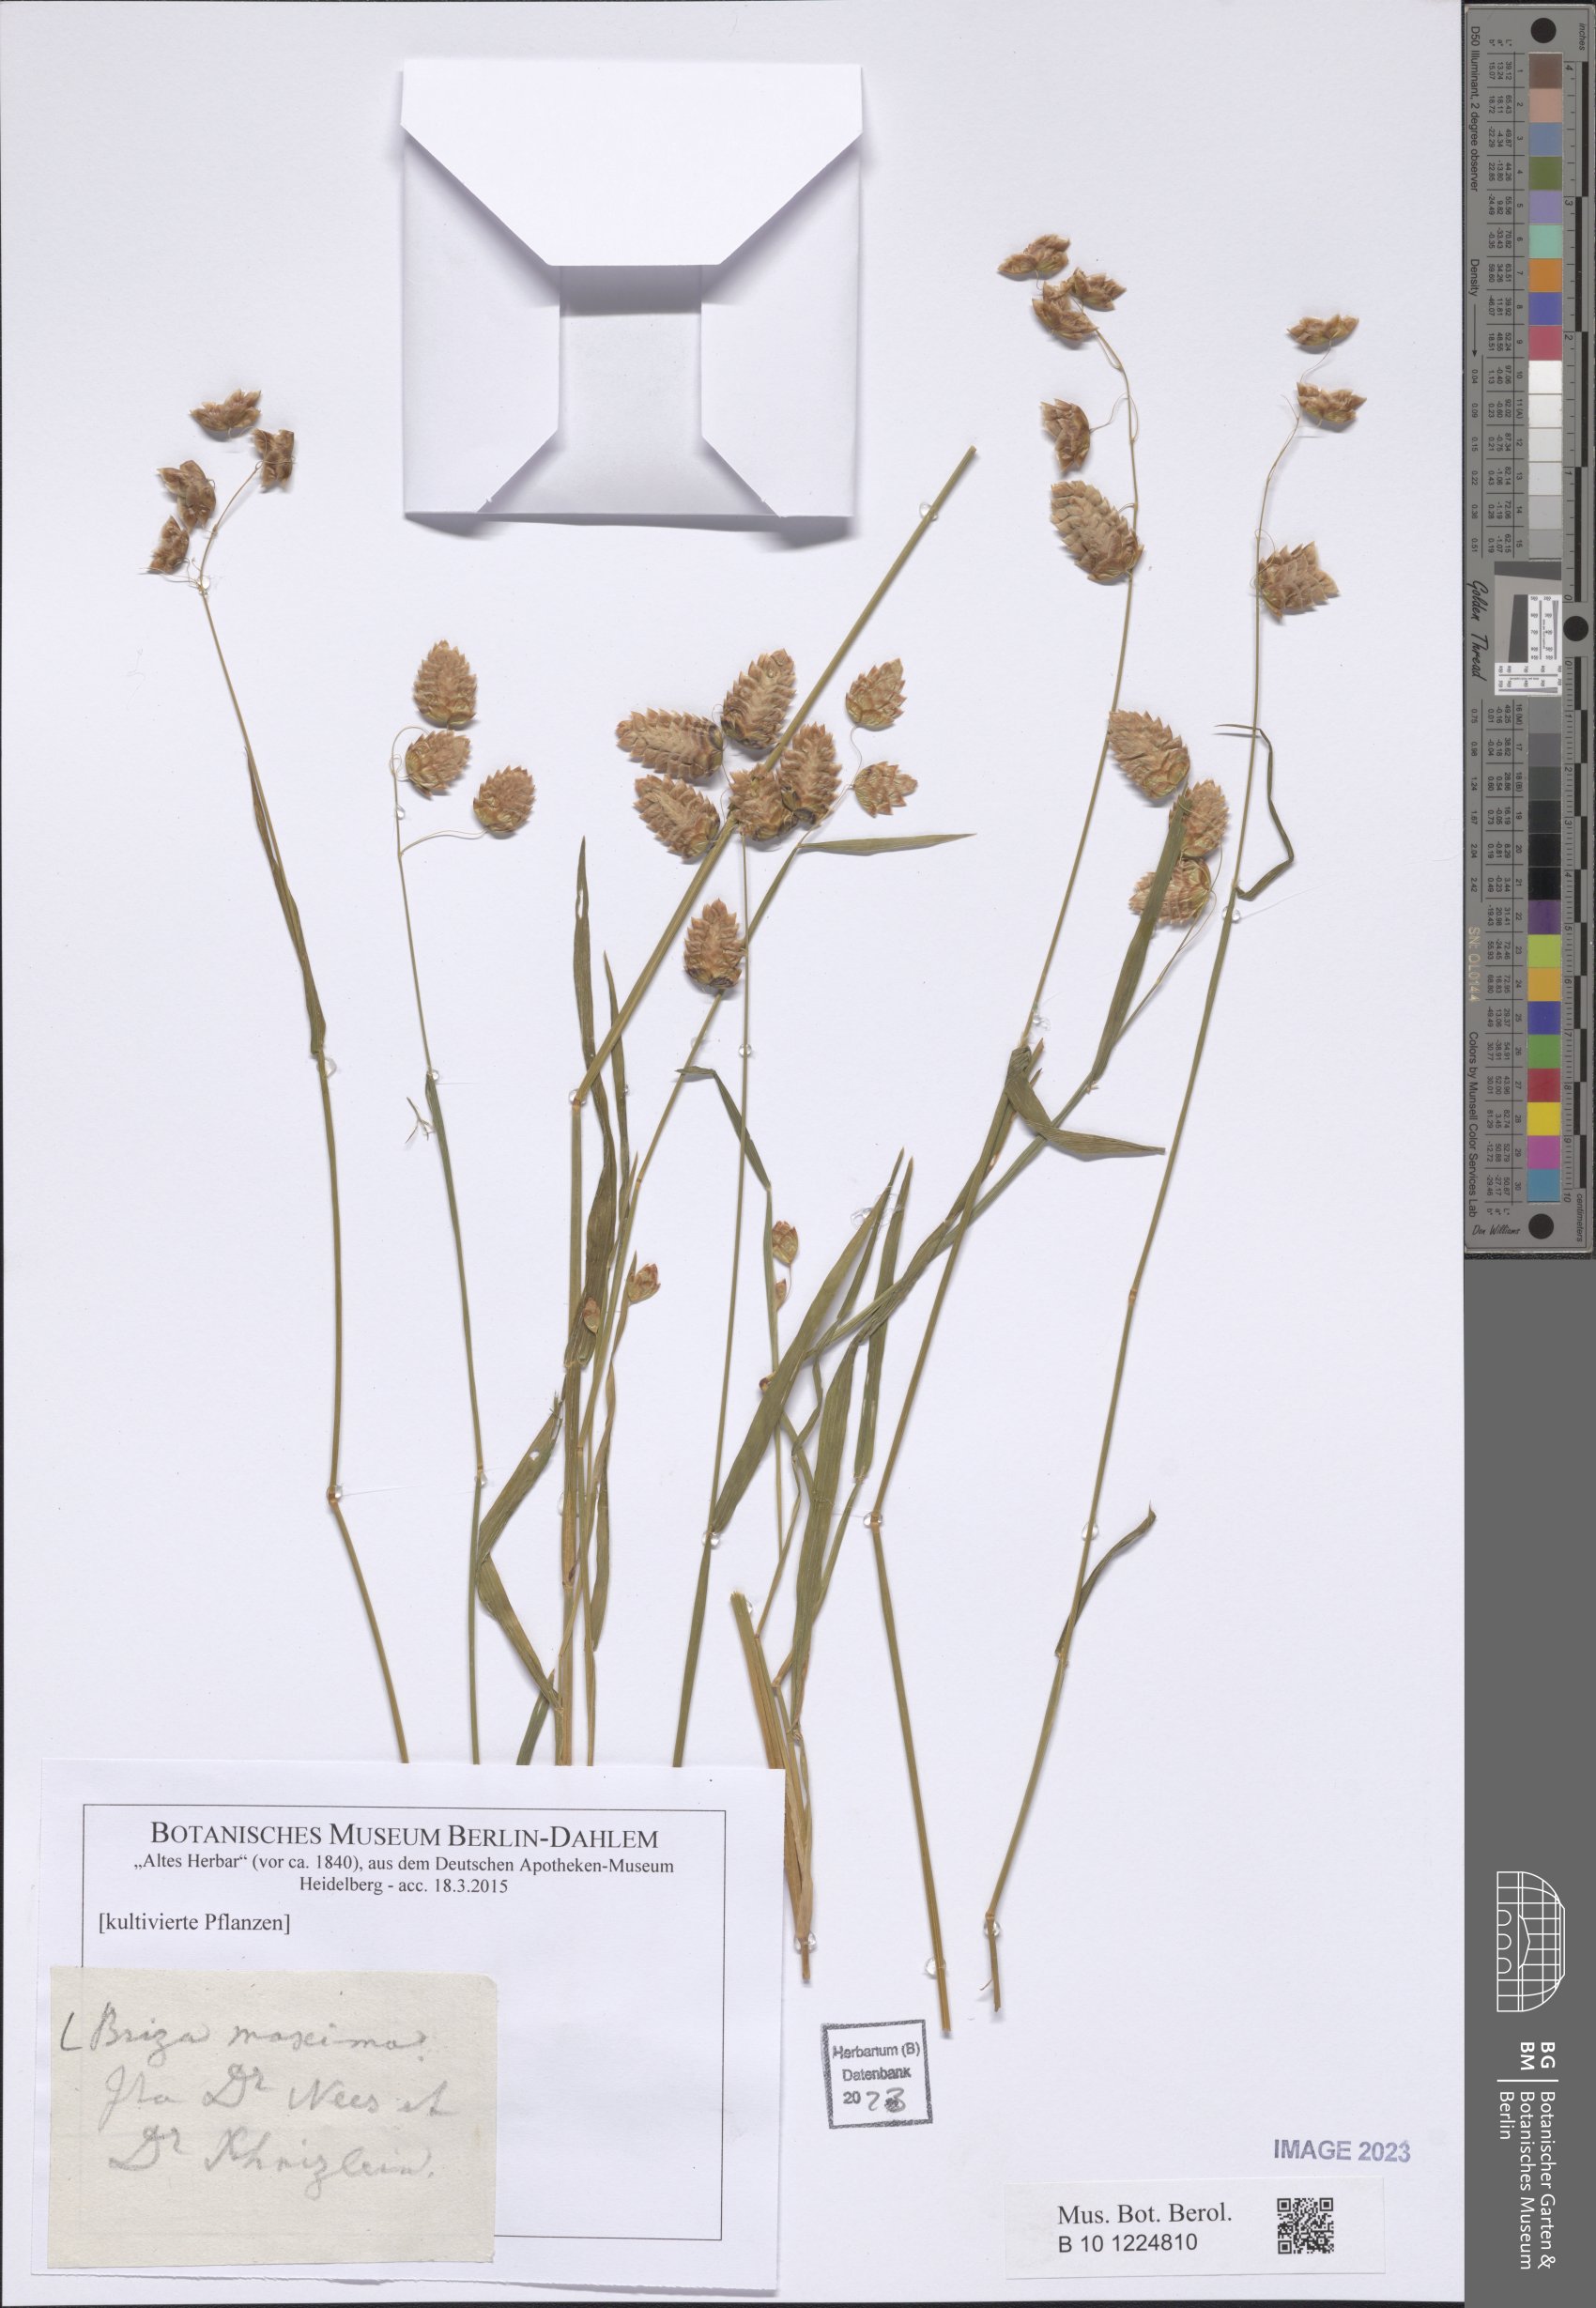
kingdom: Plantae
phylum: Tracheophyta
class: Liliopsida
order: Poales
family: Poaceae
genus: Briza
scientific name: Briza maxima
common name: Big quakinggrass
